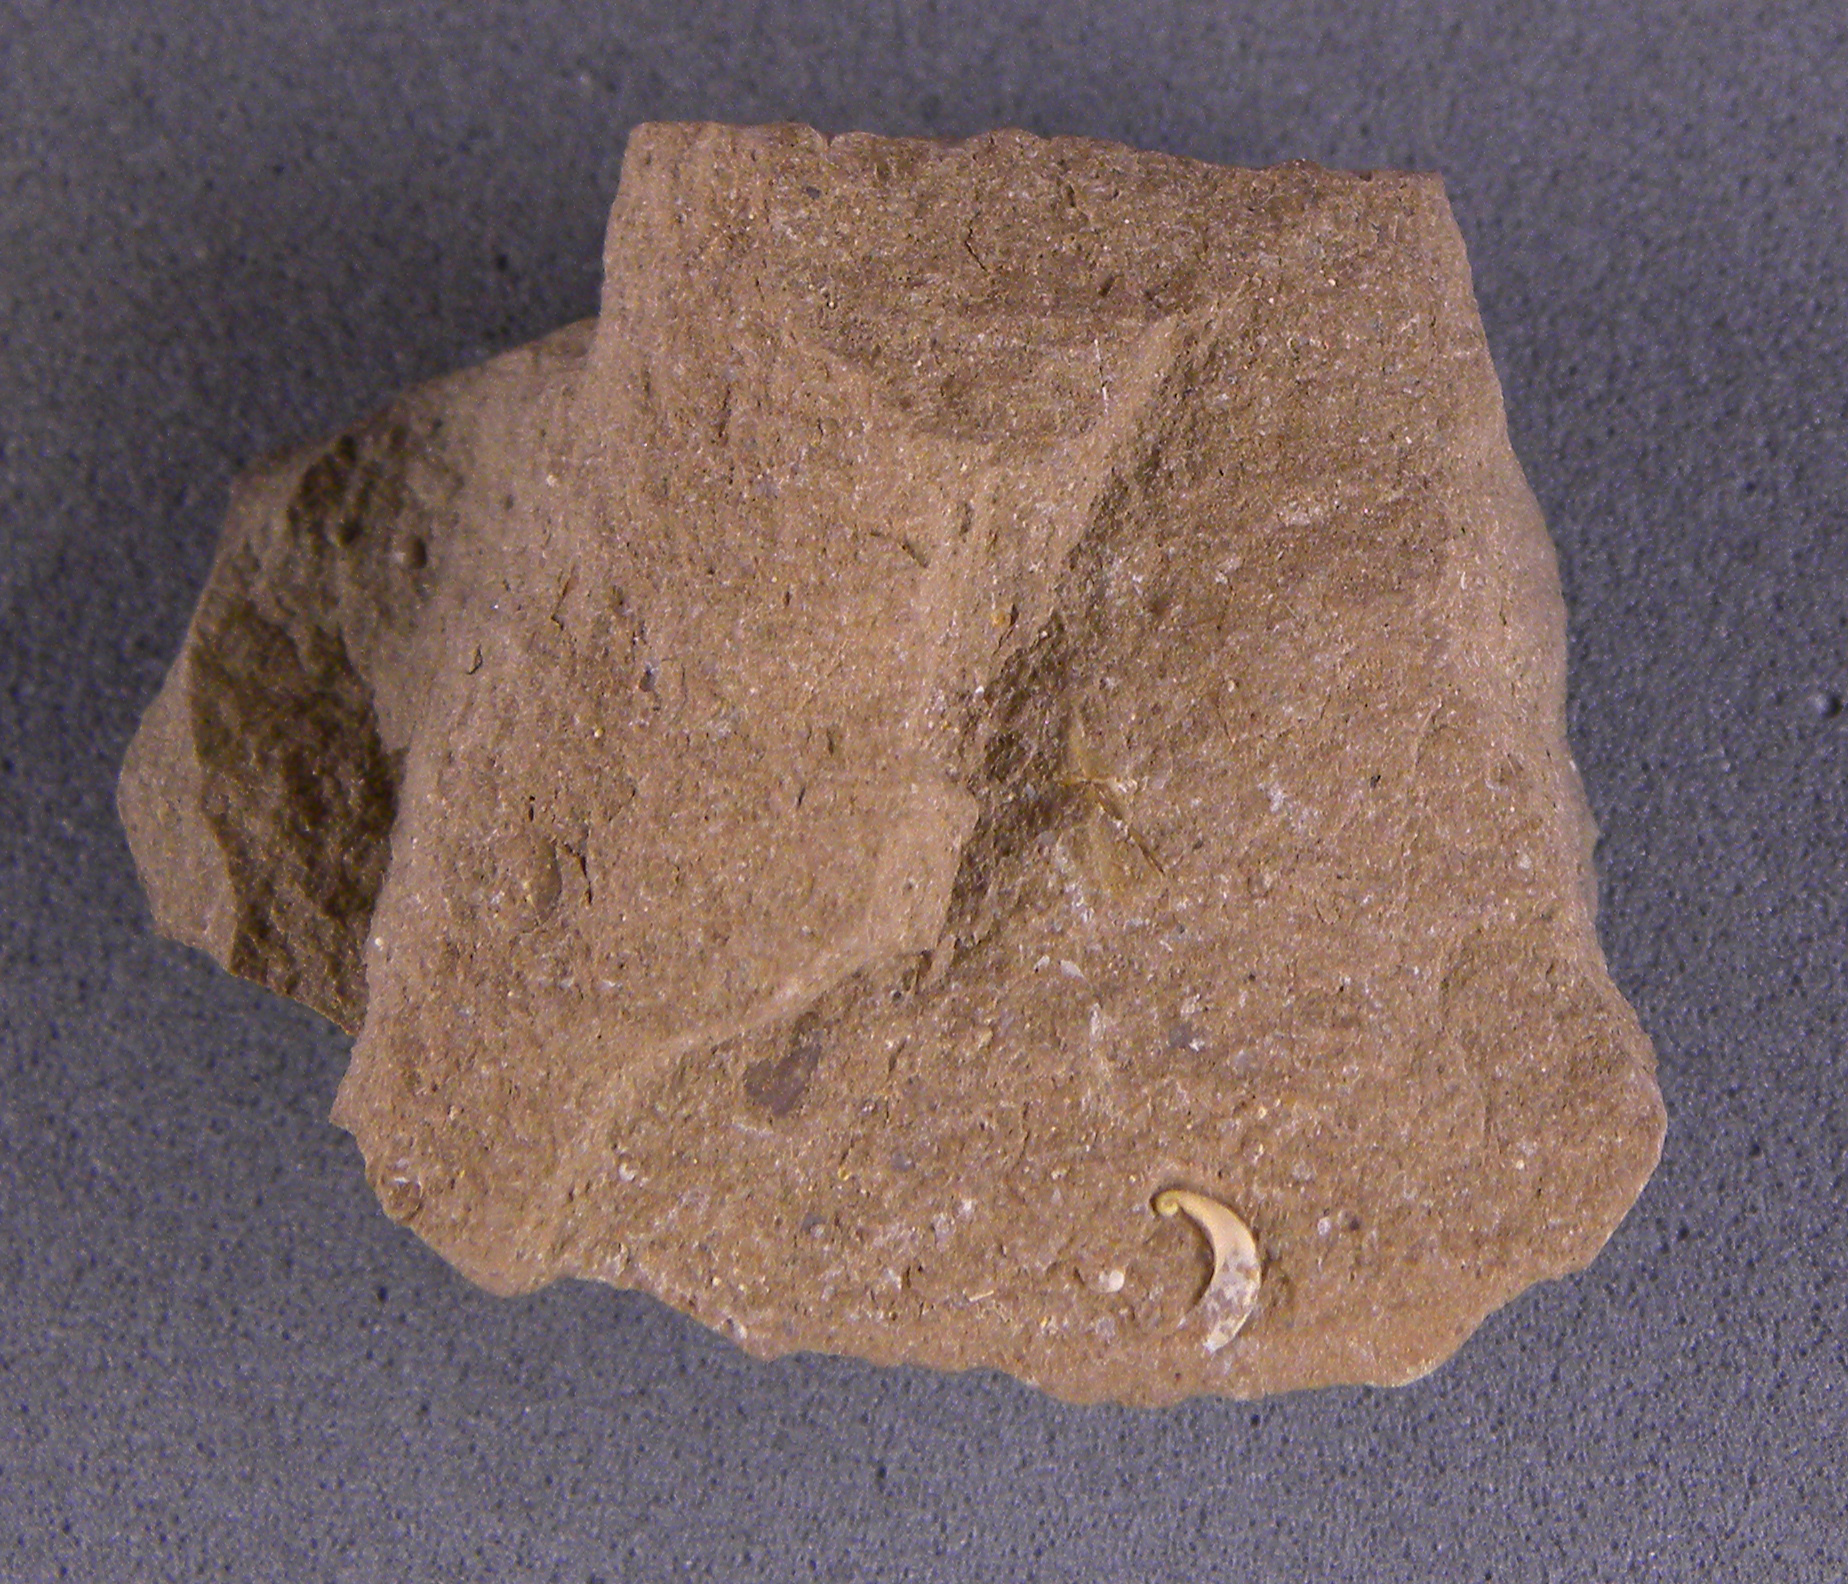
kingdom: Animalia
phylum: Mollusca
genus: Globorilusopsis
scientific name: Globorilusopsis
